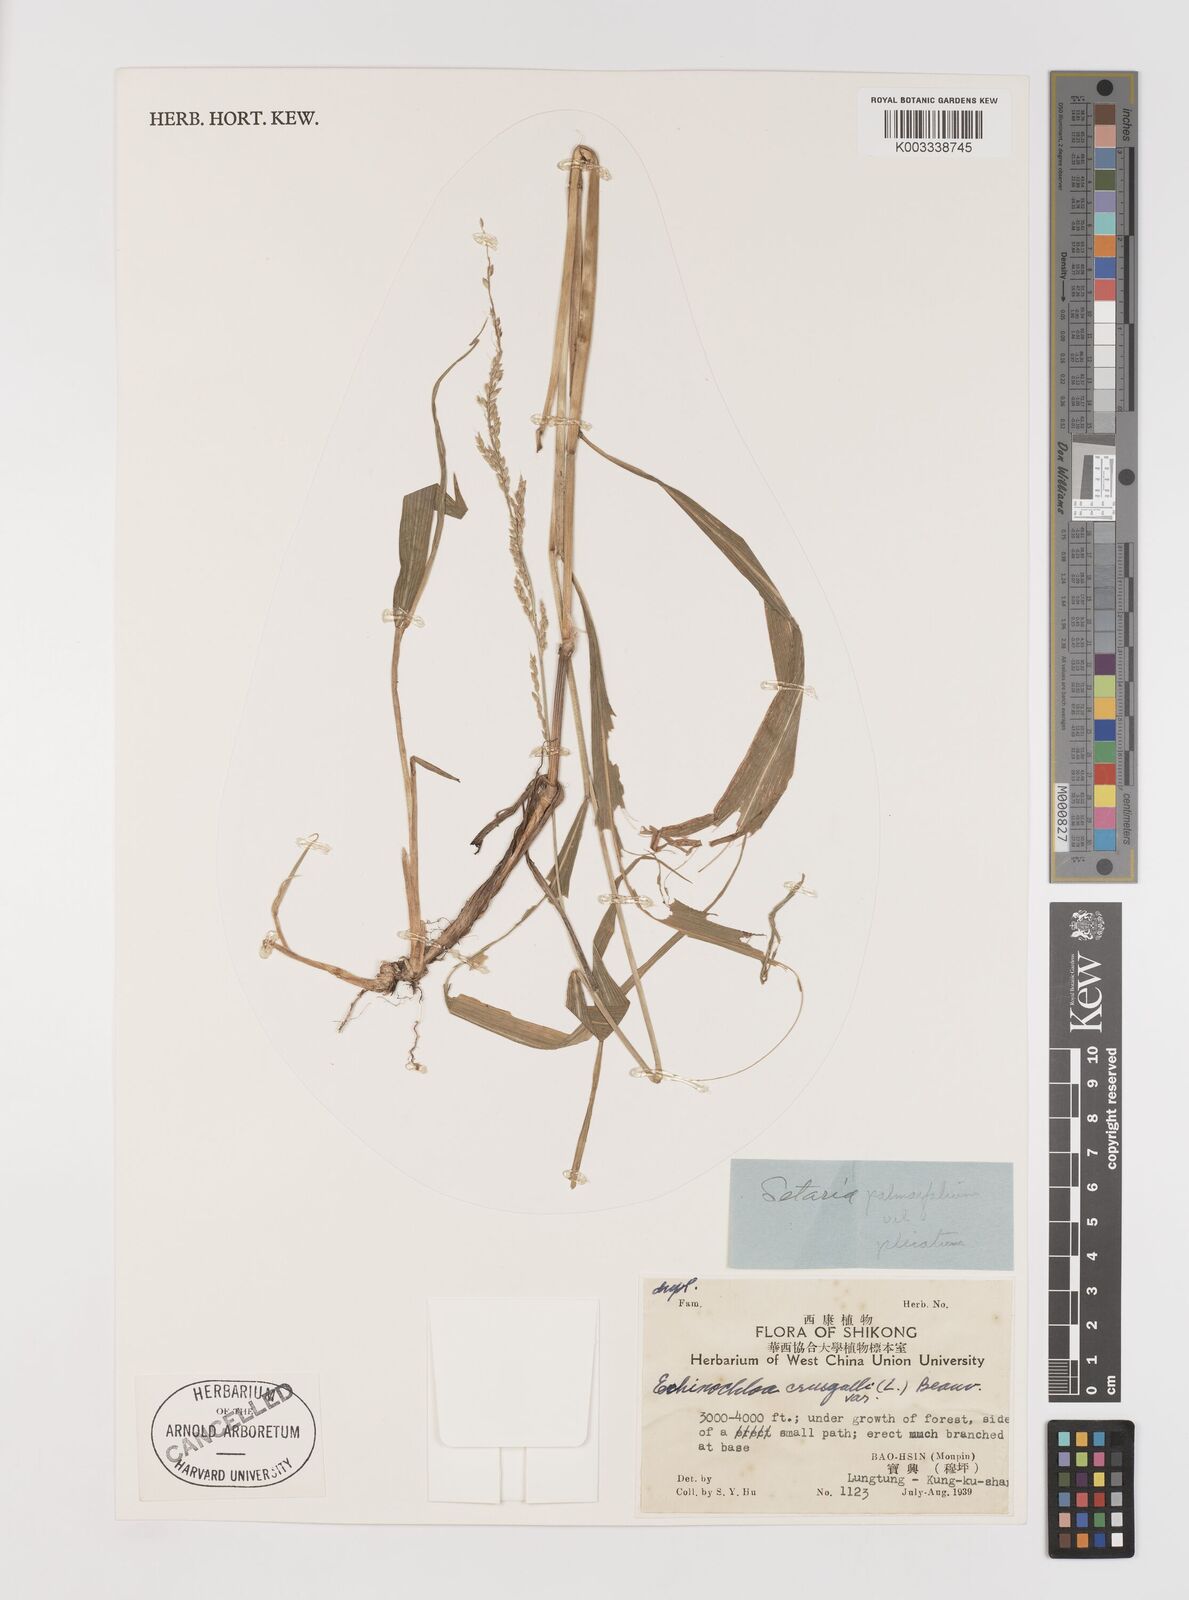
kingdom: Plantae
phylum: Tracheophyta
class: Liliopsida
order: Poales
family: Poaceae
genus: Setaria
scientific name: Setaria plicata
